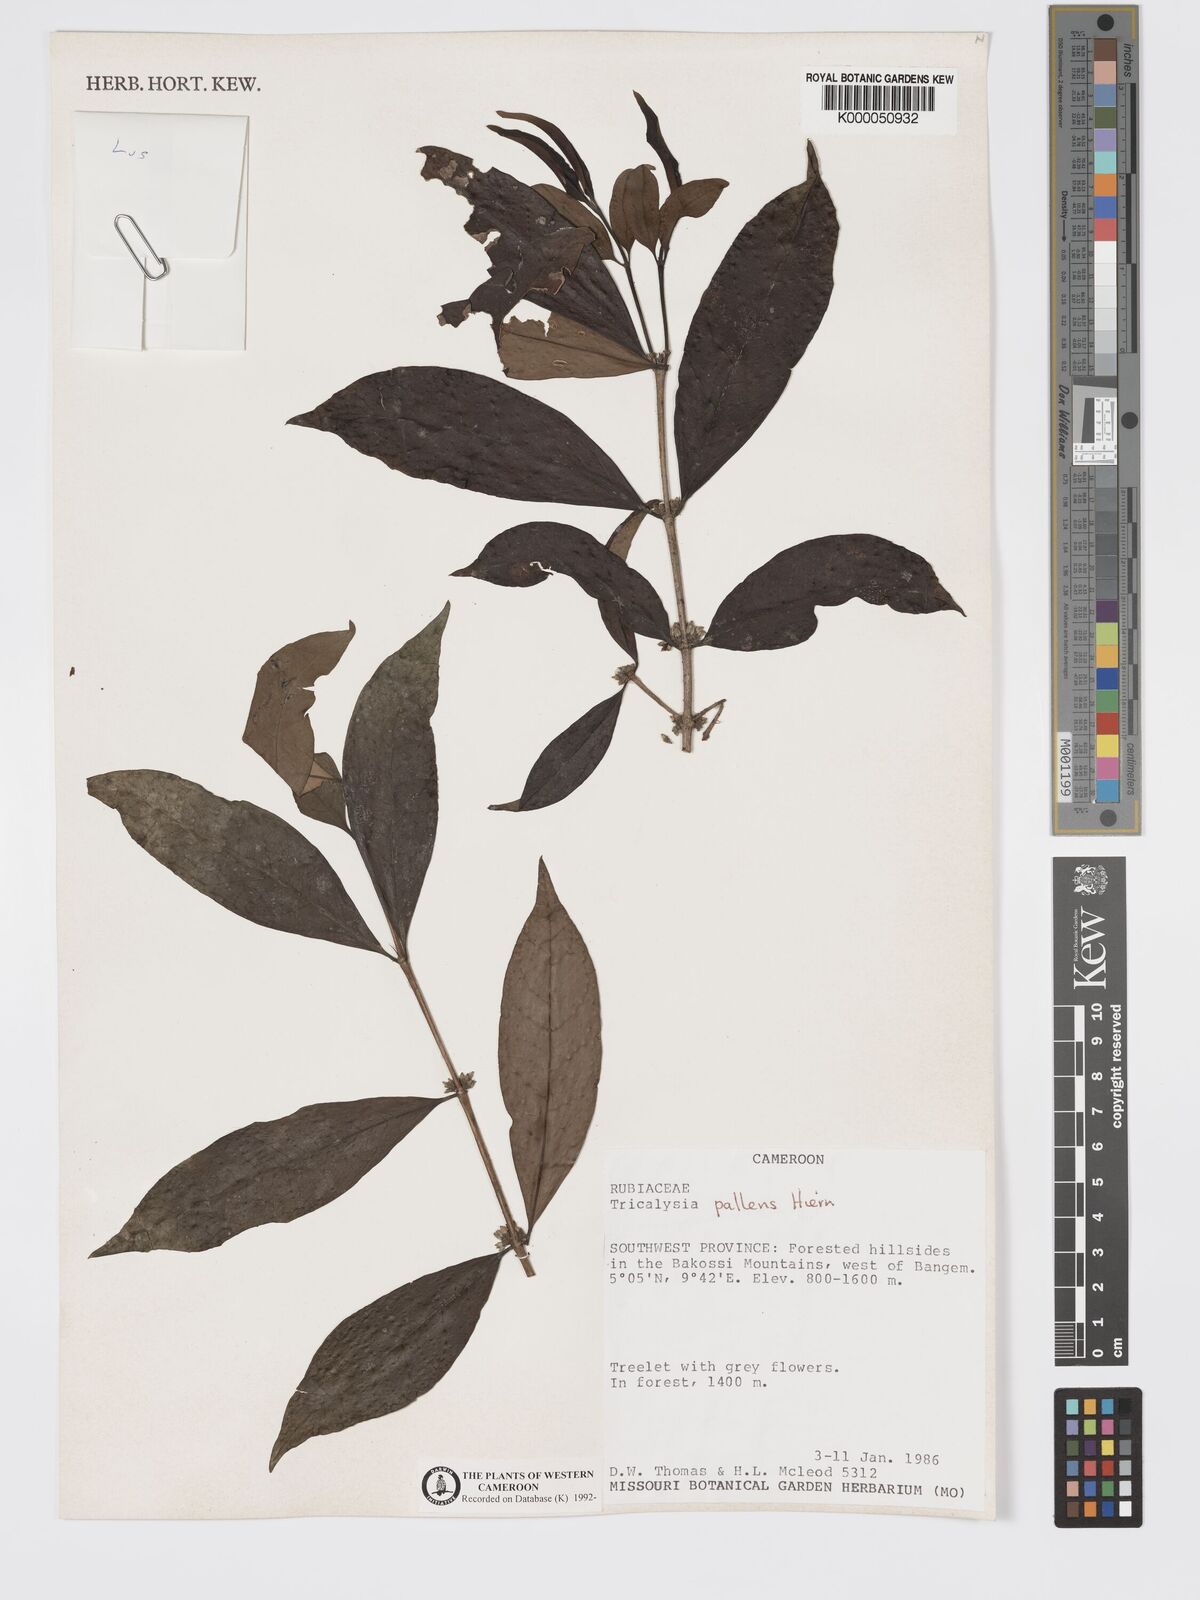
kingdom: Plantae
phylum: Tracheophyta
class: Magnoliopsida
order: Gentianales
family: Rubiaceae
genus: Tricalysia
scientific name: Tricalysia pallens
